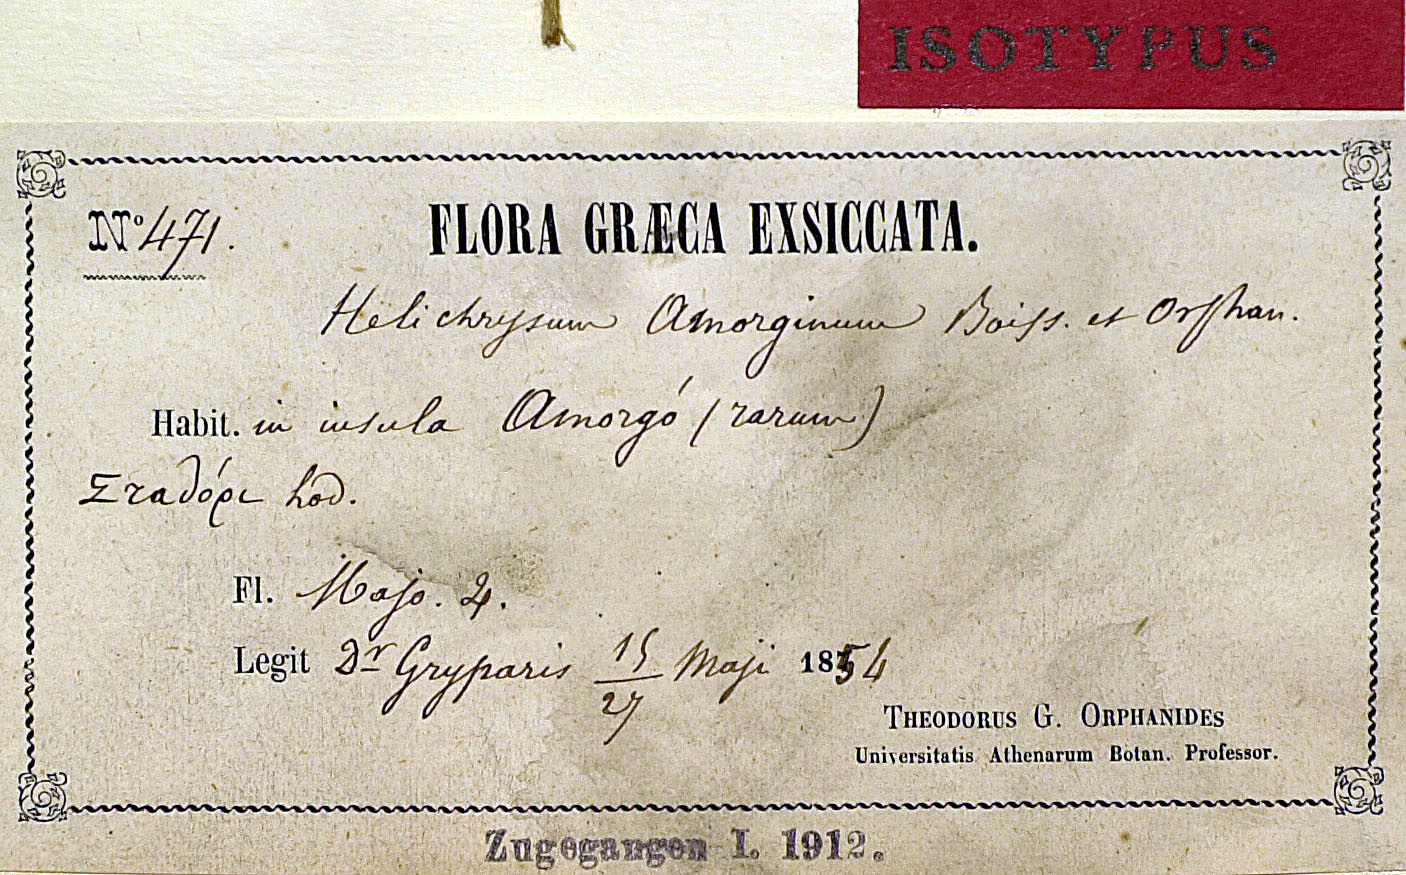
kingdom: Plantae
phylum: Tracheophyta
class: Magnoliopsida
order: Asterales
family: Asteraceae
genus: Helichrysum
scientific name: Helichrysum amorginum
